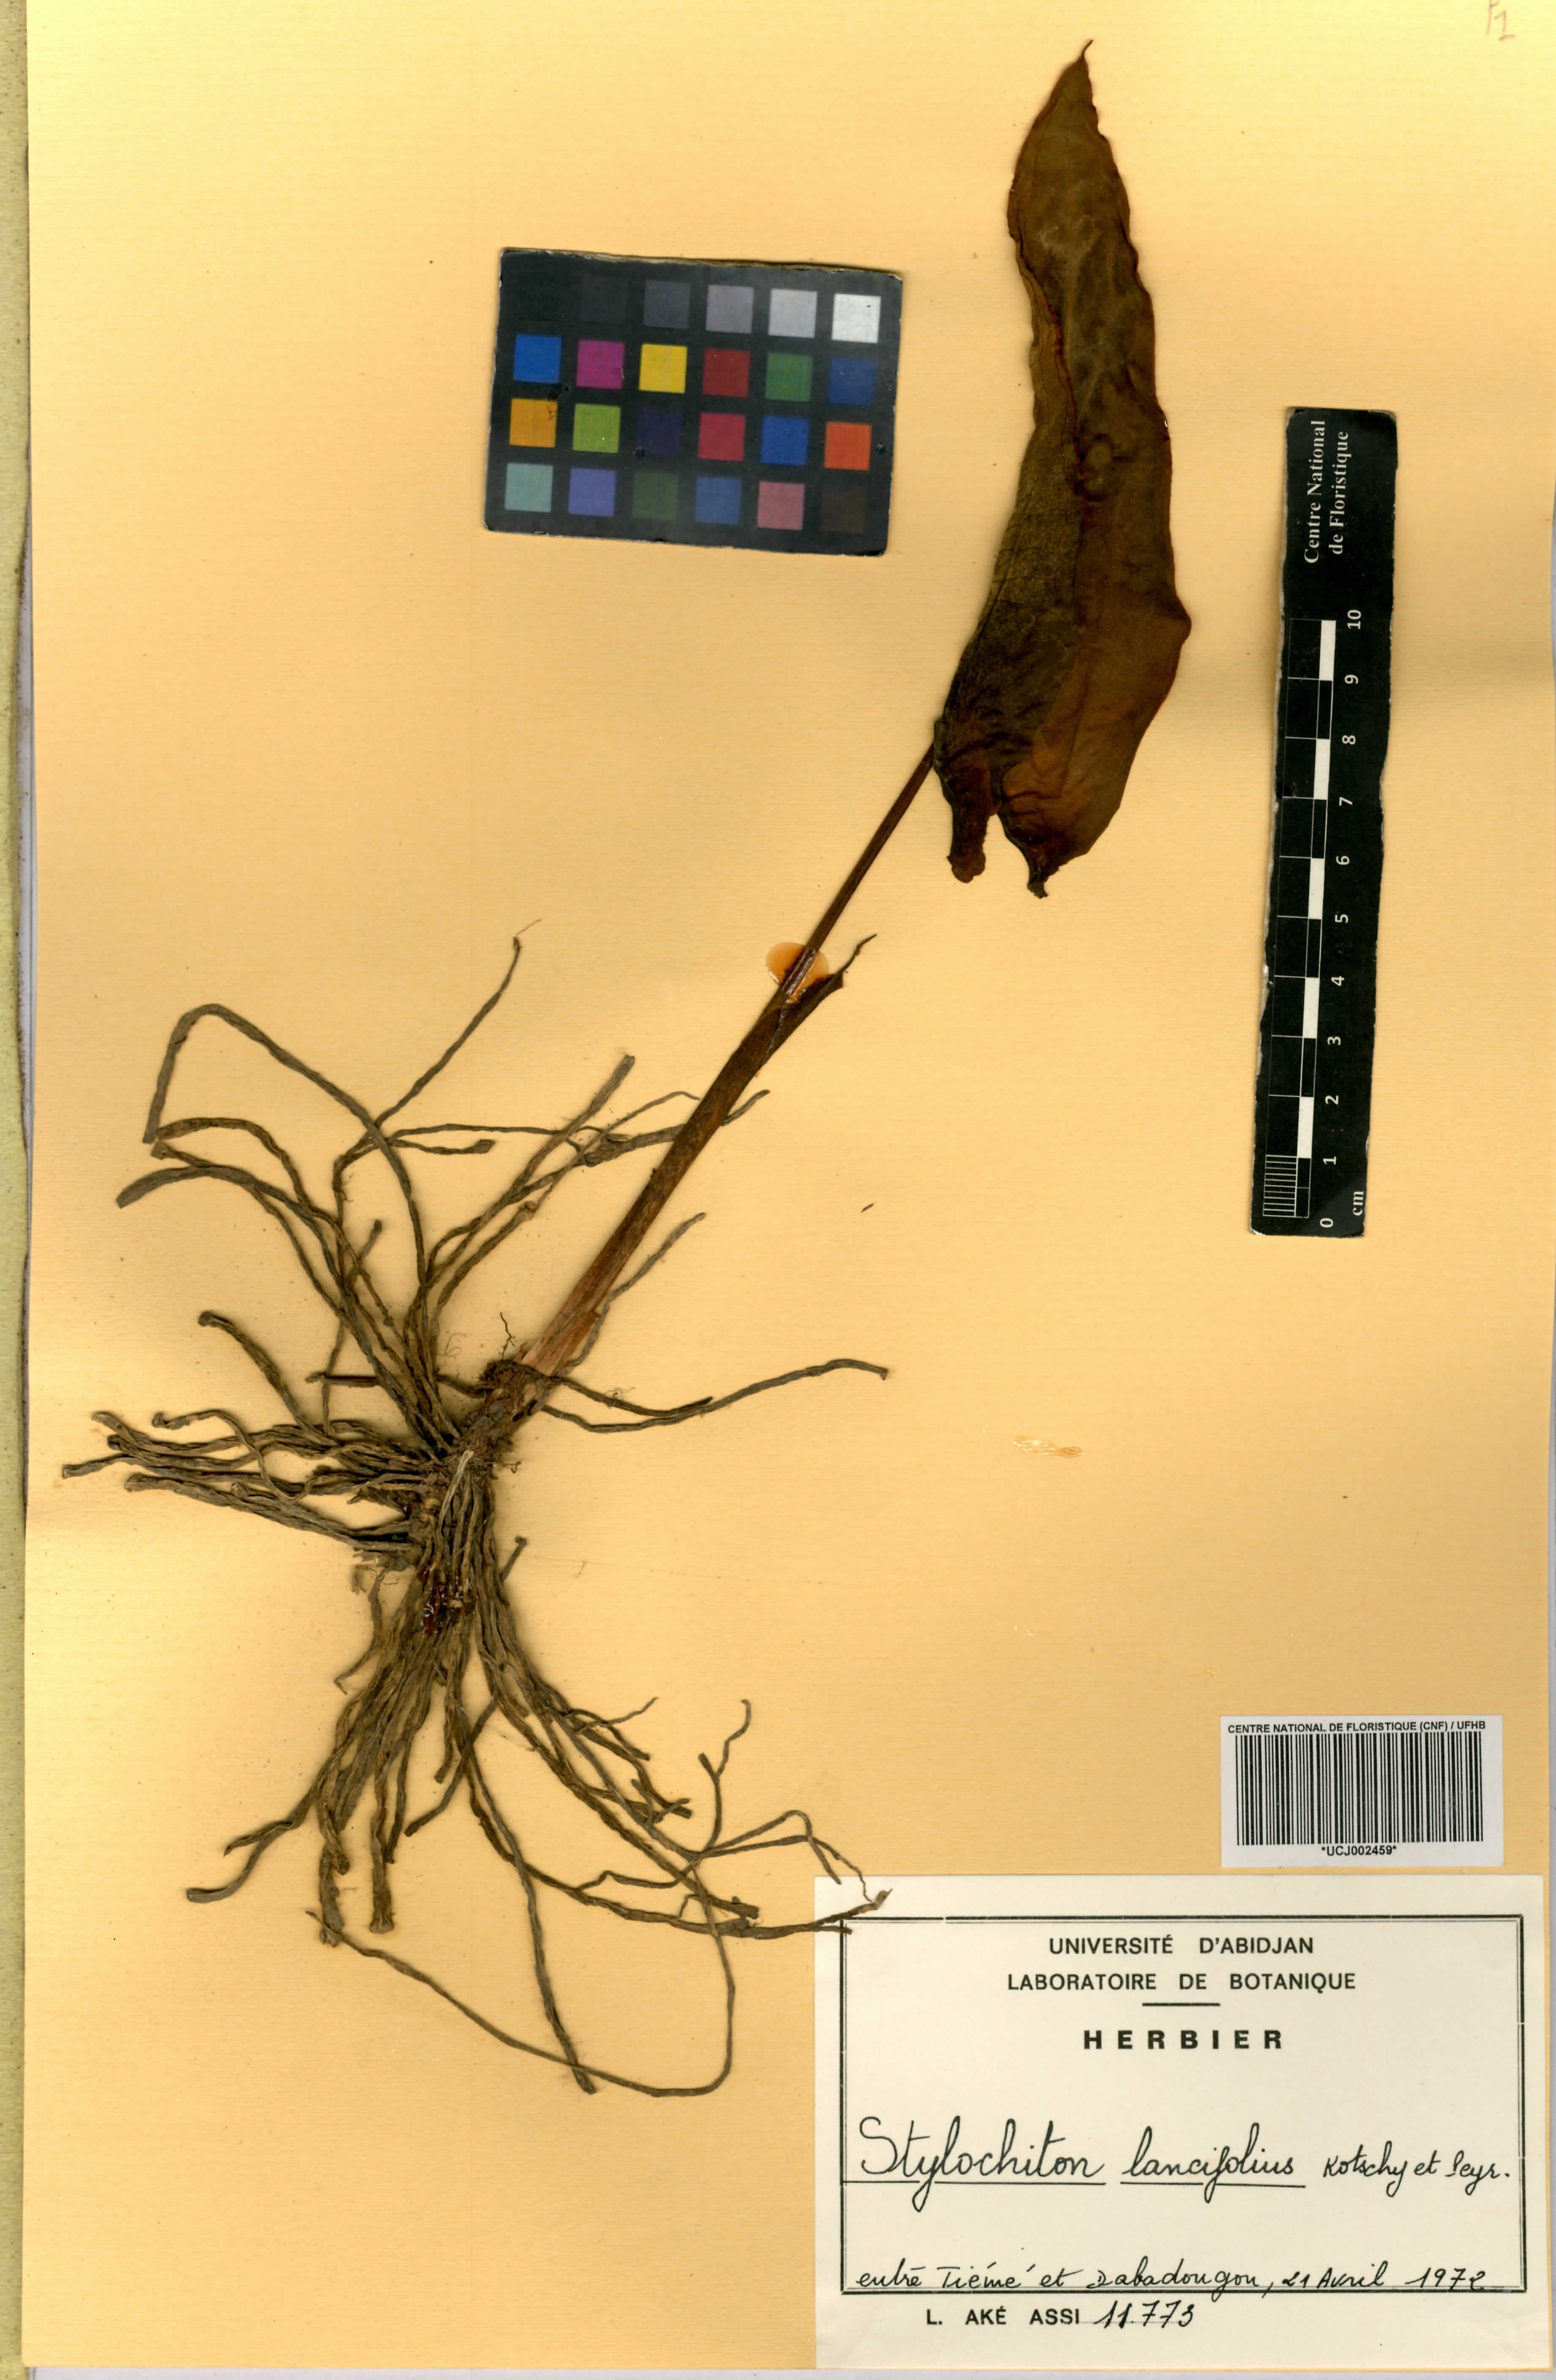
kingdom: Plantae
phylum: Tracheophyta
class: Liliopsida
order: Alismatales
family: Araceae
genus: Stylochaeton
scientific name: Stylochaeton lancifolium
